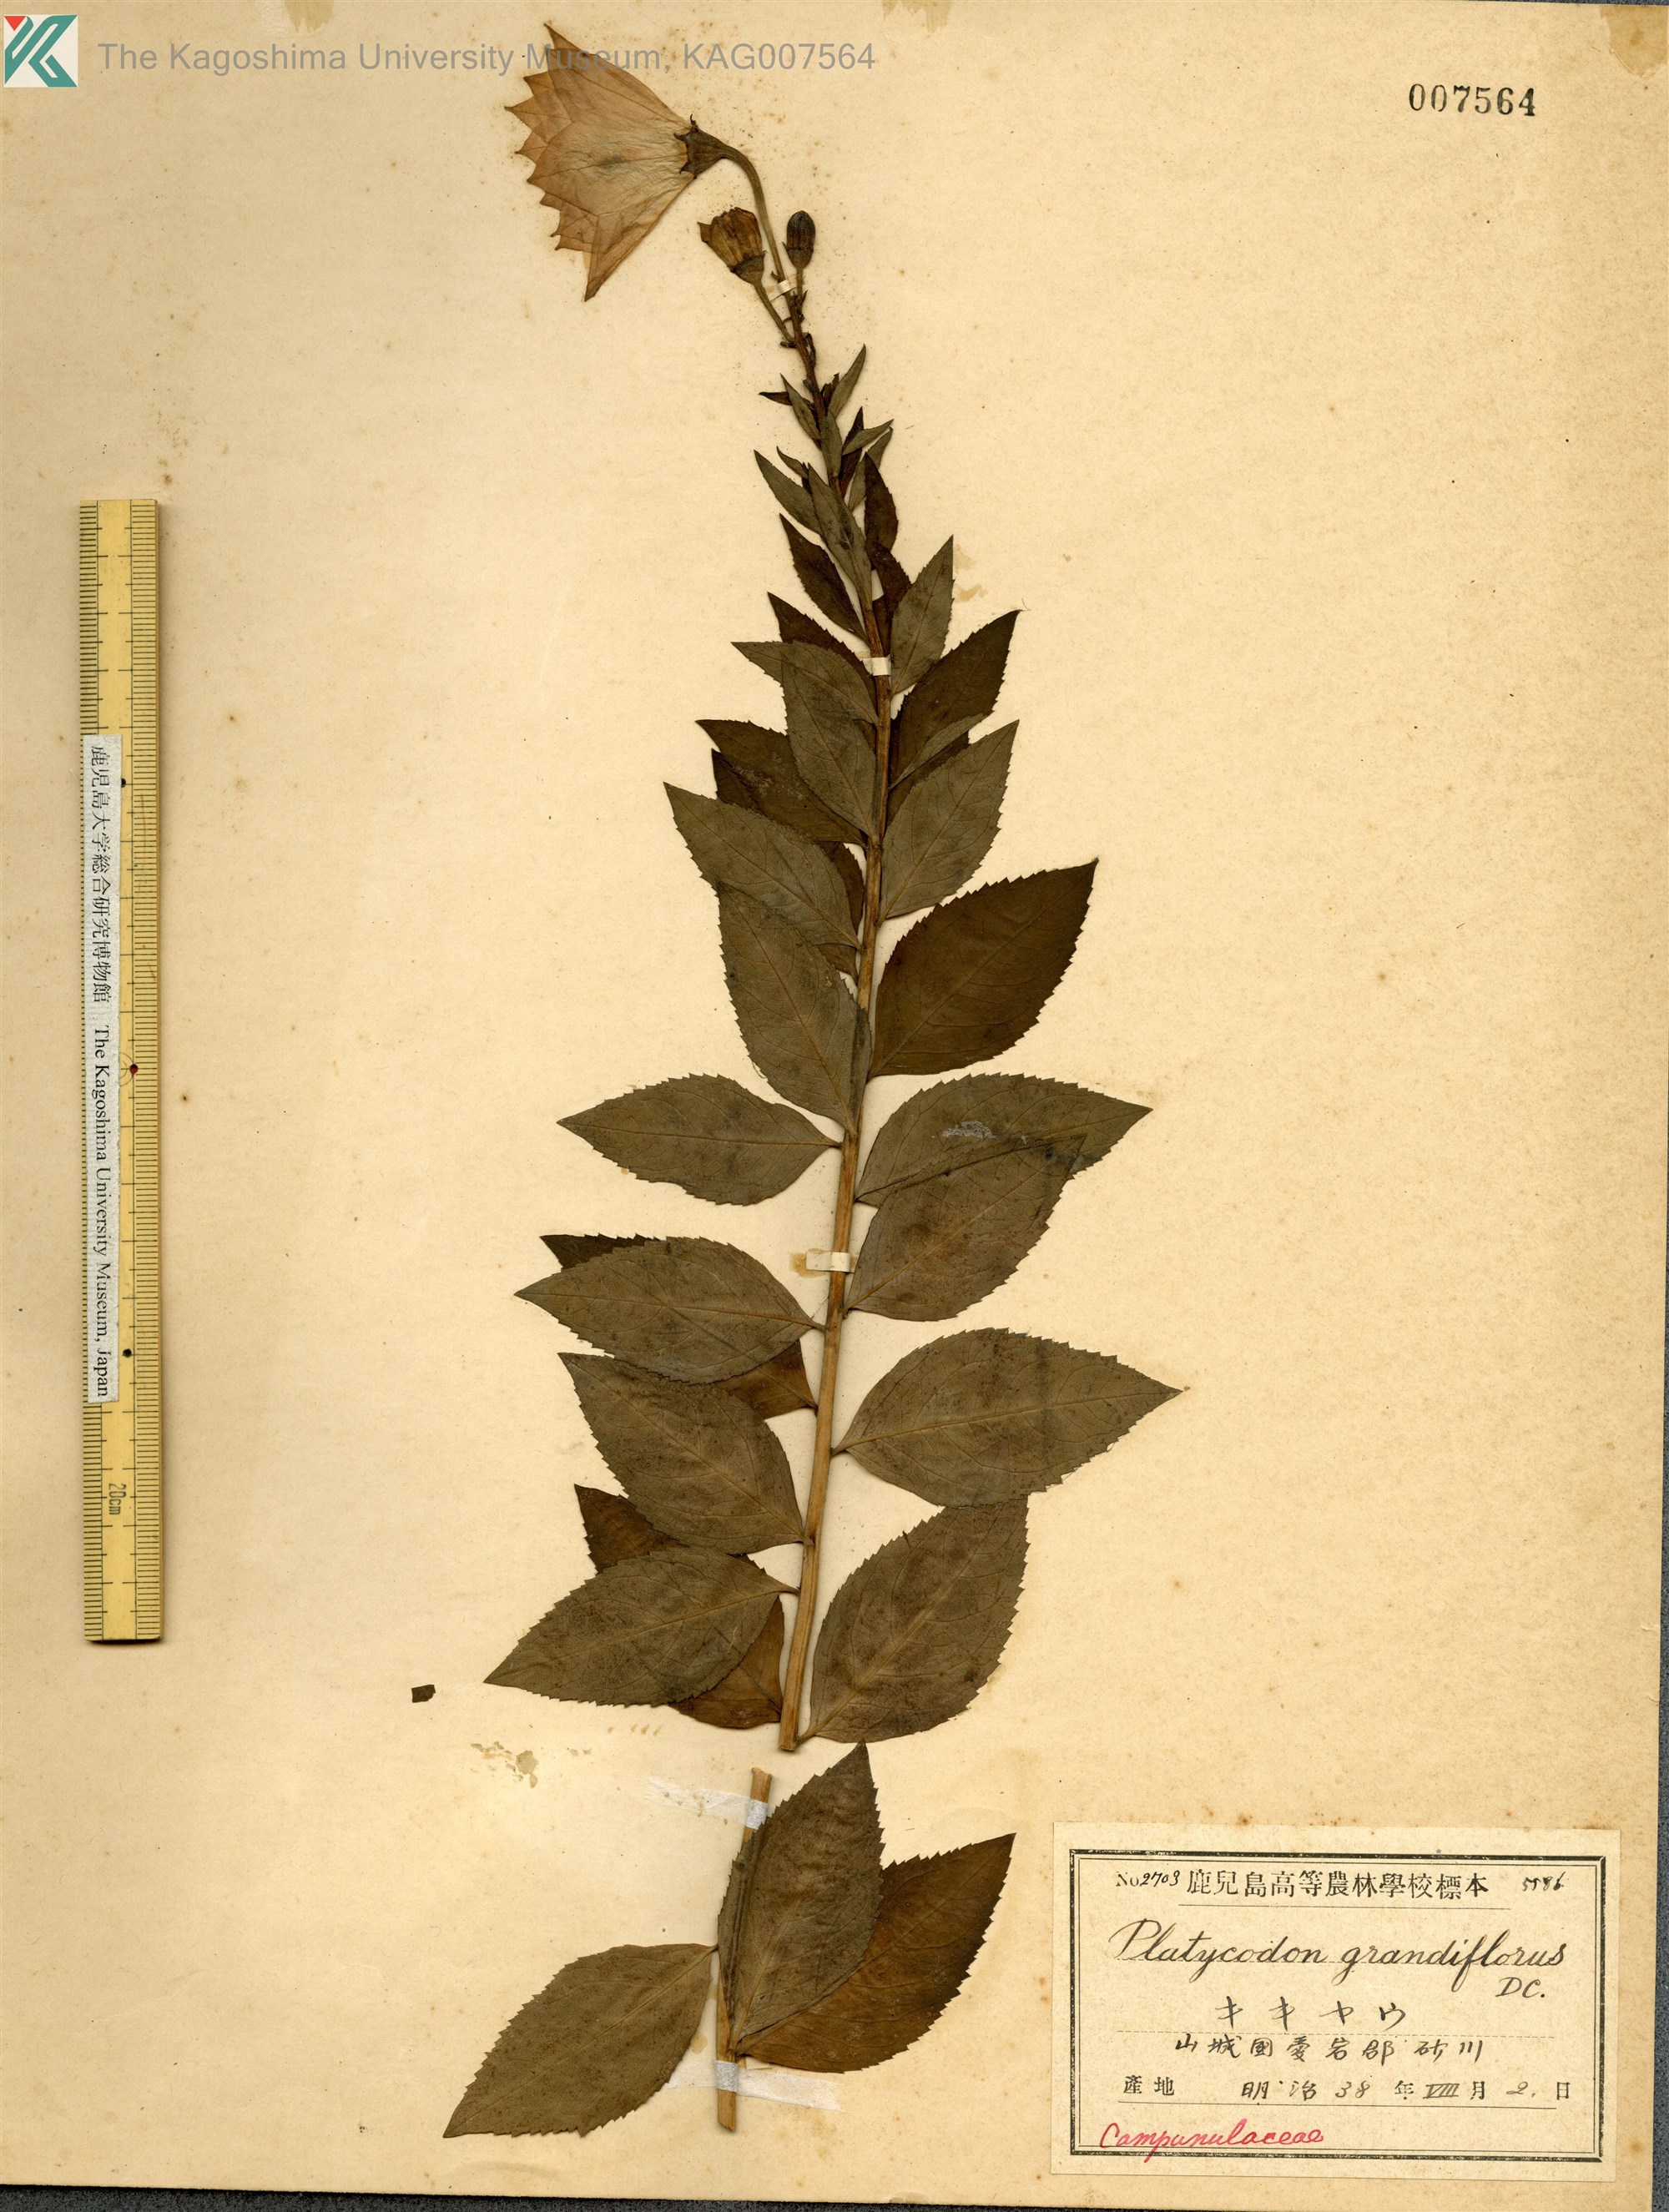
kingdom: Plantae
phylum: Tracheophyta
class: Magnoliopsida
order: Asterales
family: Campanulaceae
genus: Platycodon
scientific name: Platycodon grandiflorus
